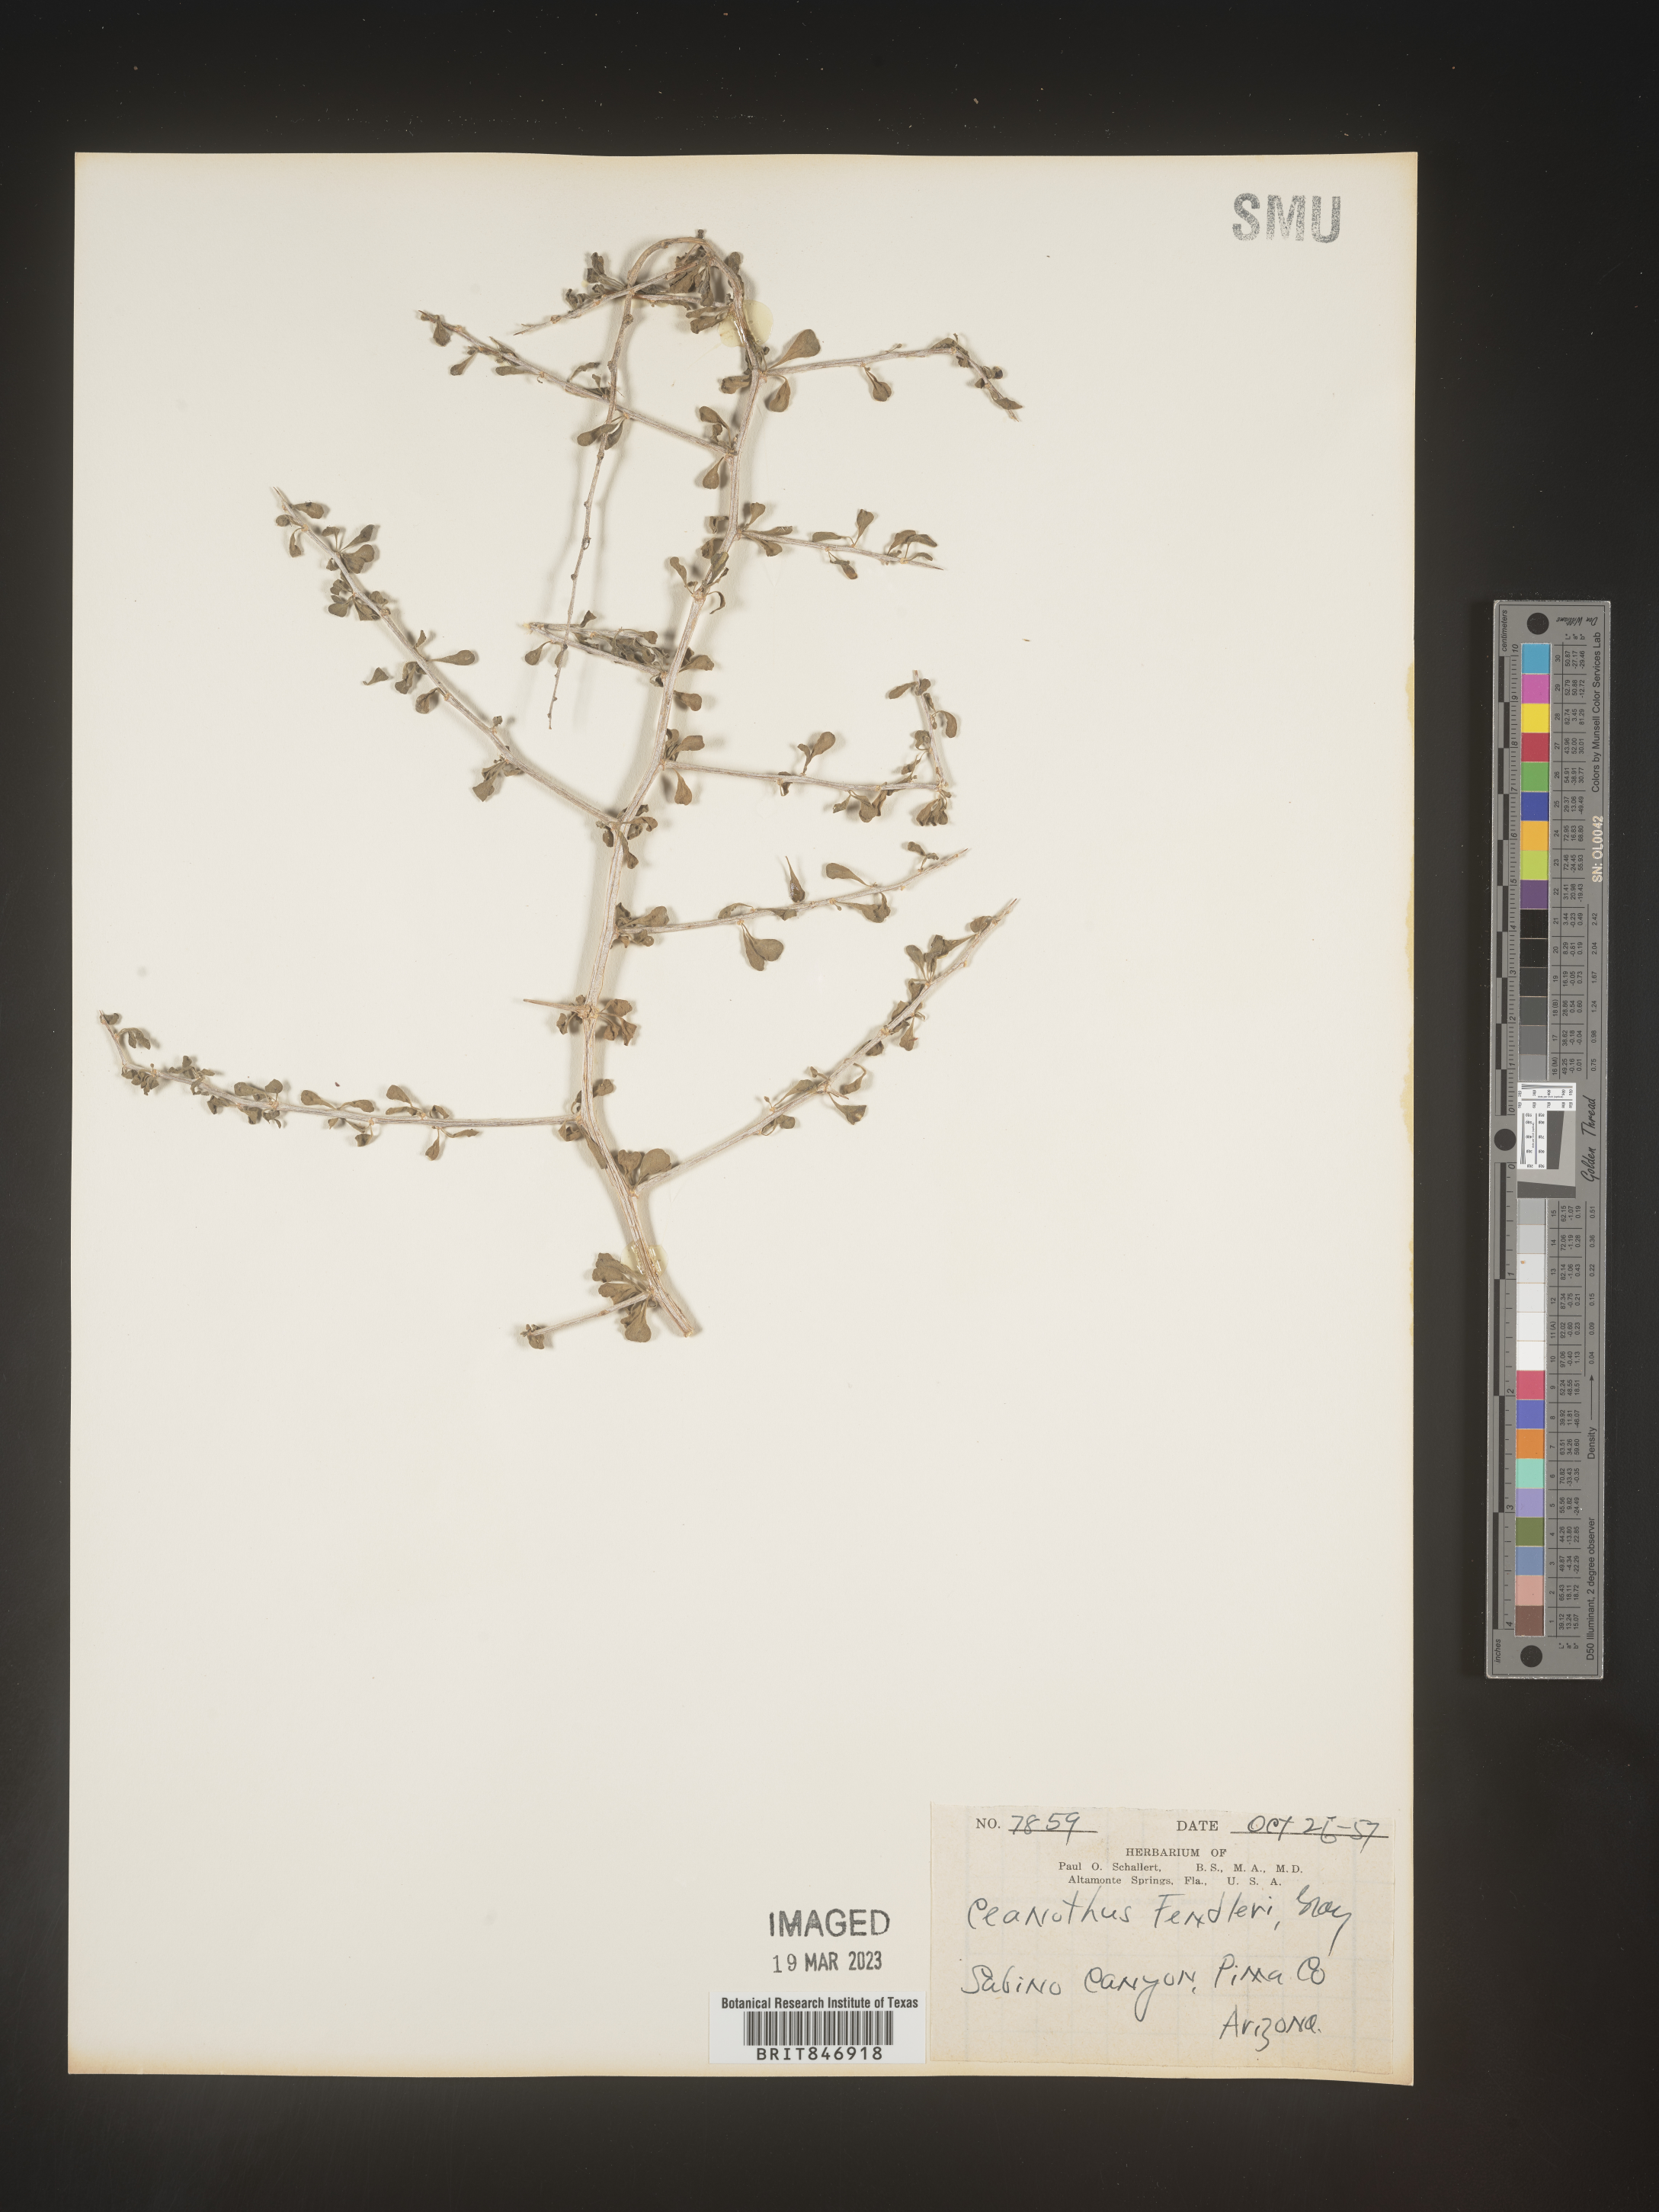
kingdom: Plantae
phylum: Tracheophyta
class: Magnoliopsida
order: Rosales
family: Rhamnaceae
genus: Ceanothus
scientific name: Ceanothus fendleri
